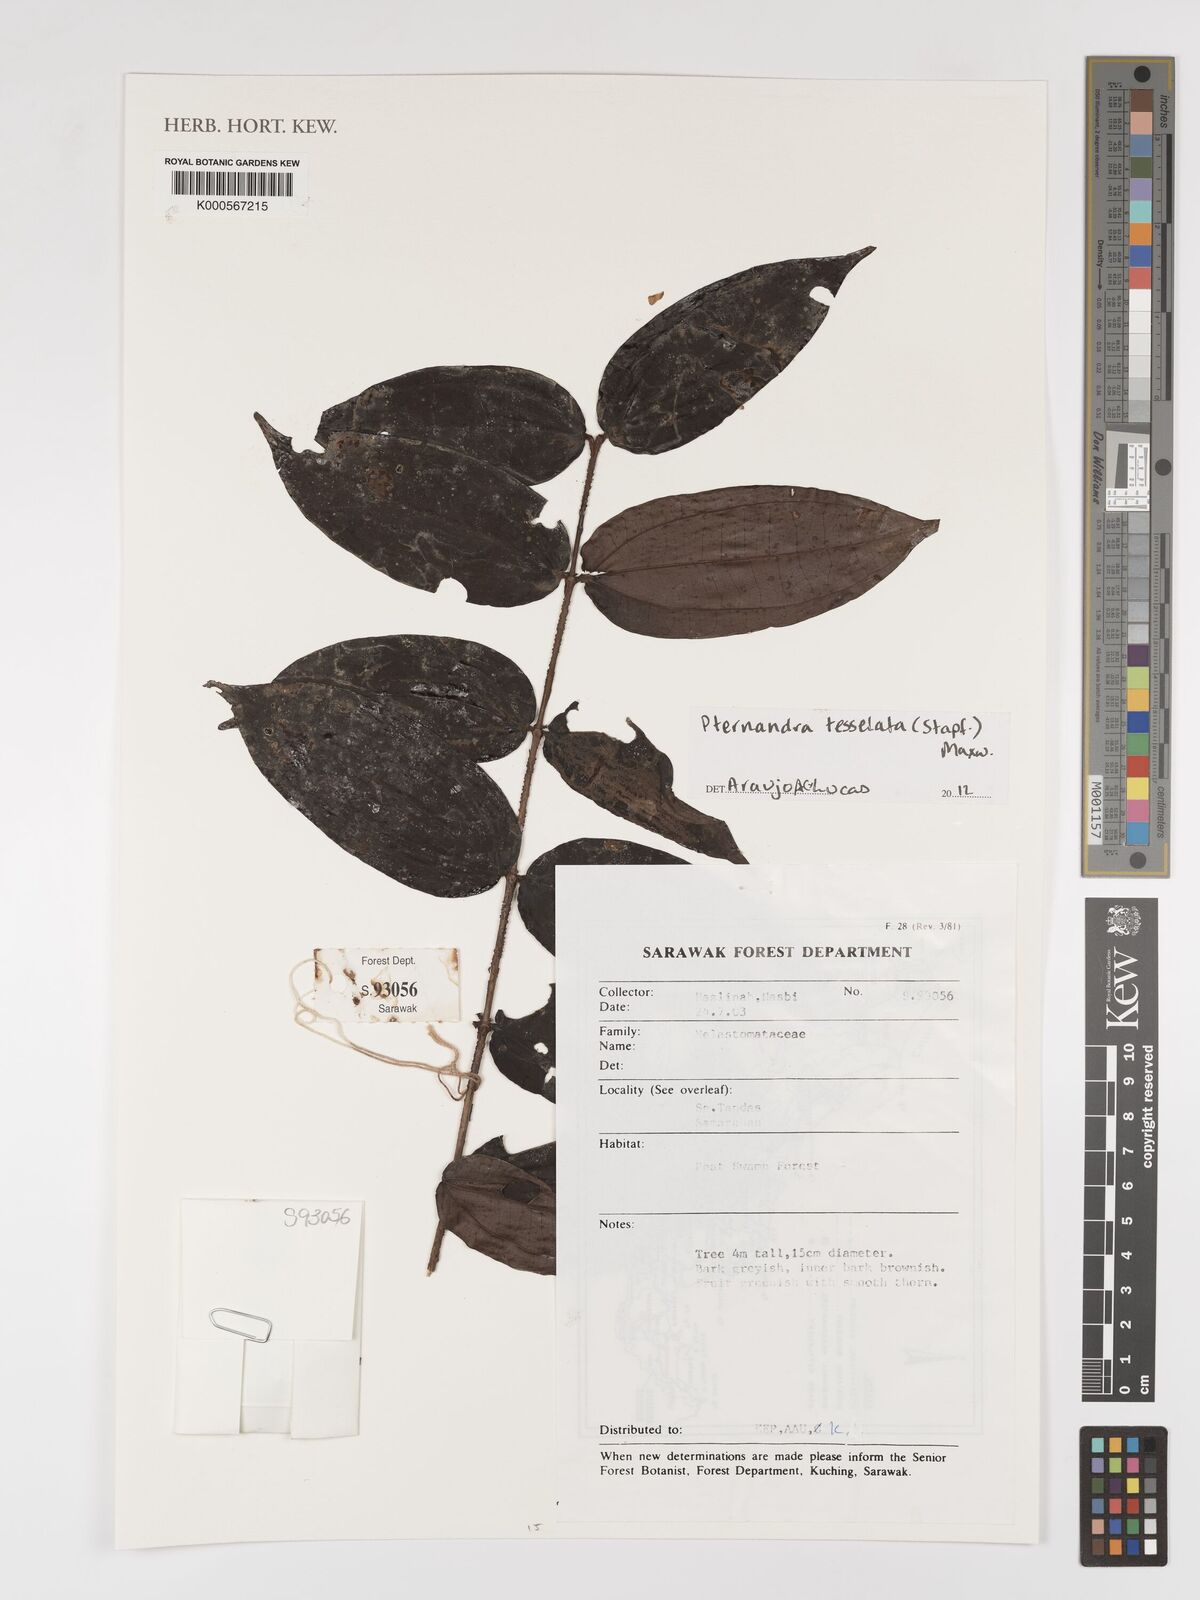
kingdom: Plantae
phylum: Tracheophyta
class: Magnoliopsida
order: Myrtales
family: Melastomataceae
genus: Pternandra
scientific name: Pternandra
